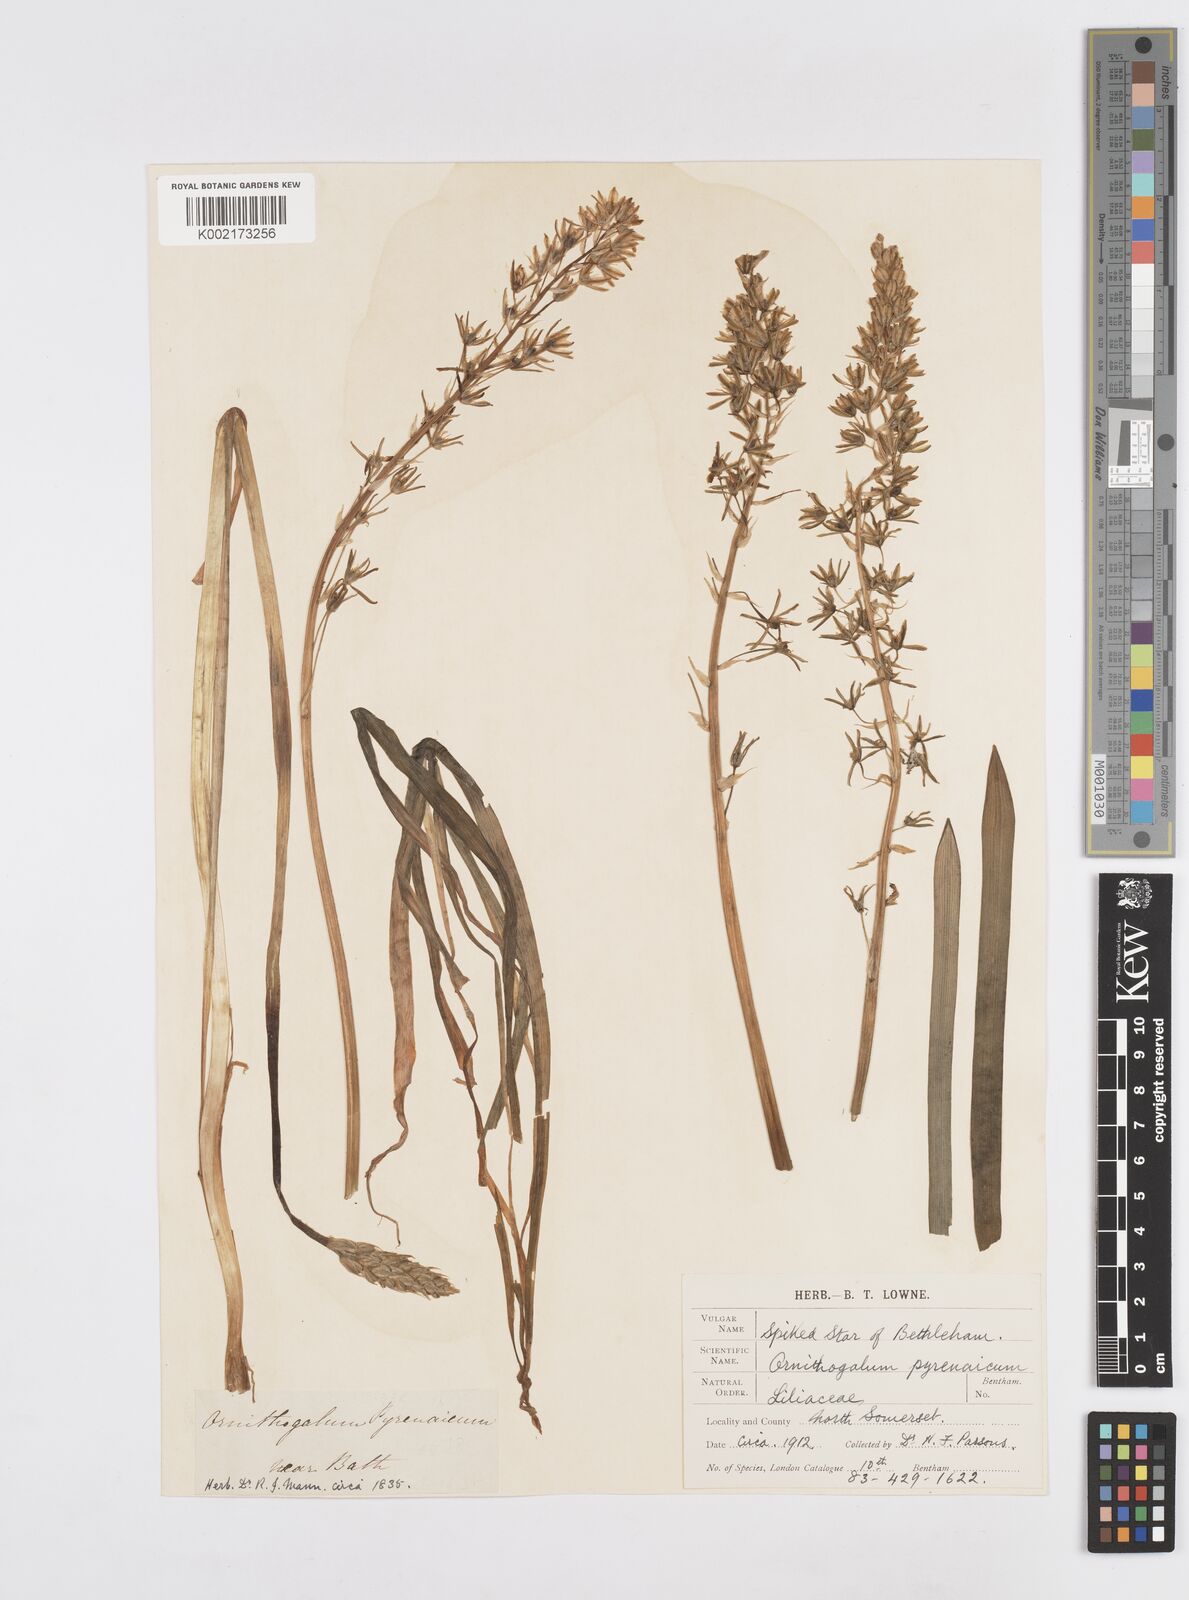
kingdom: Plantae
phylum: Tracheophyta
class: Liliopsida
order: Asparagales
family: Asparagaceae
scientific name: Asparagaceae
